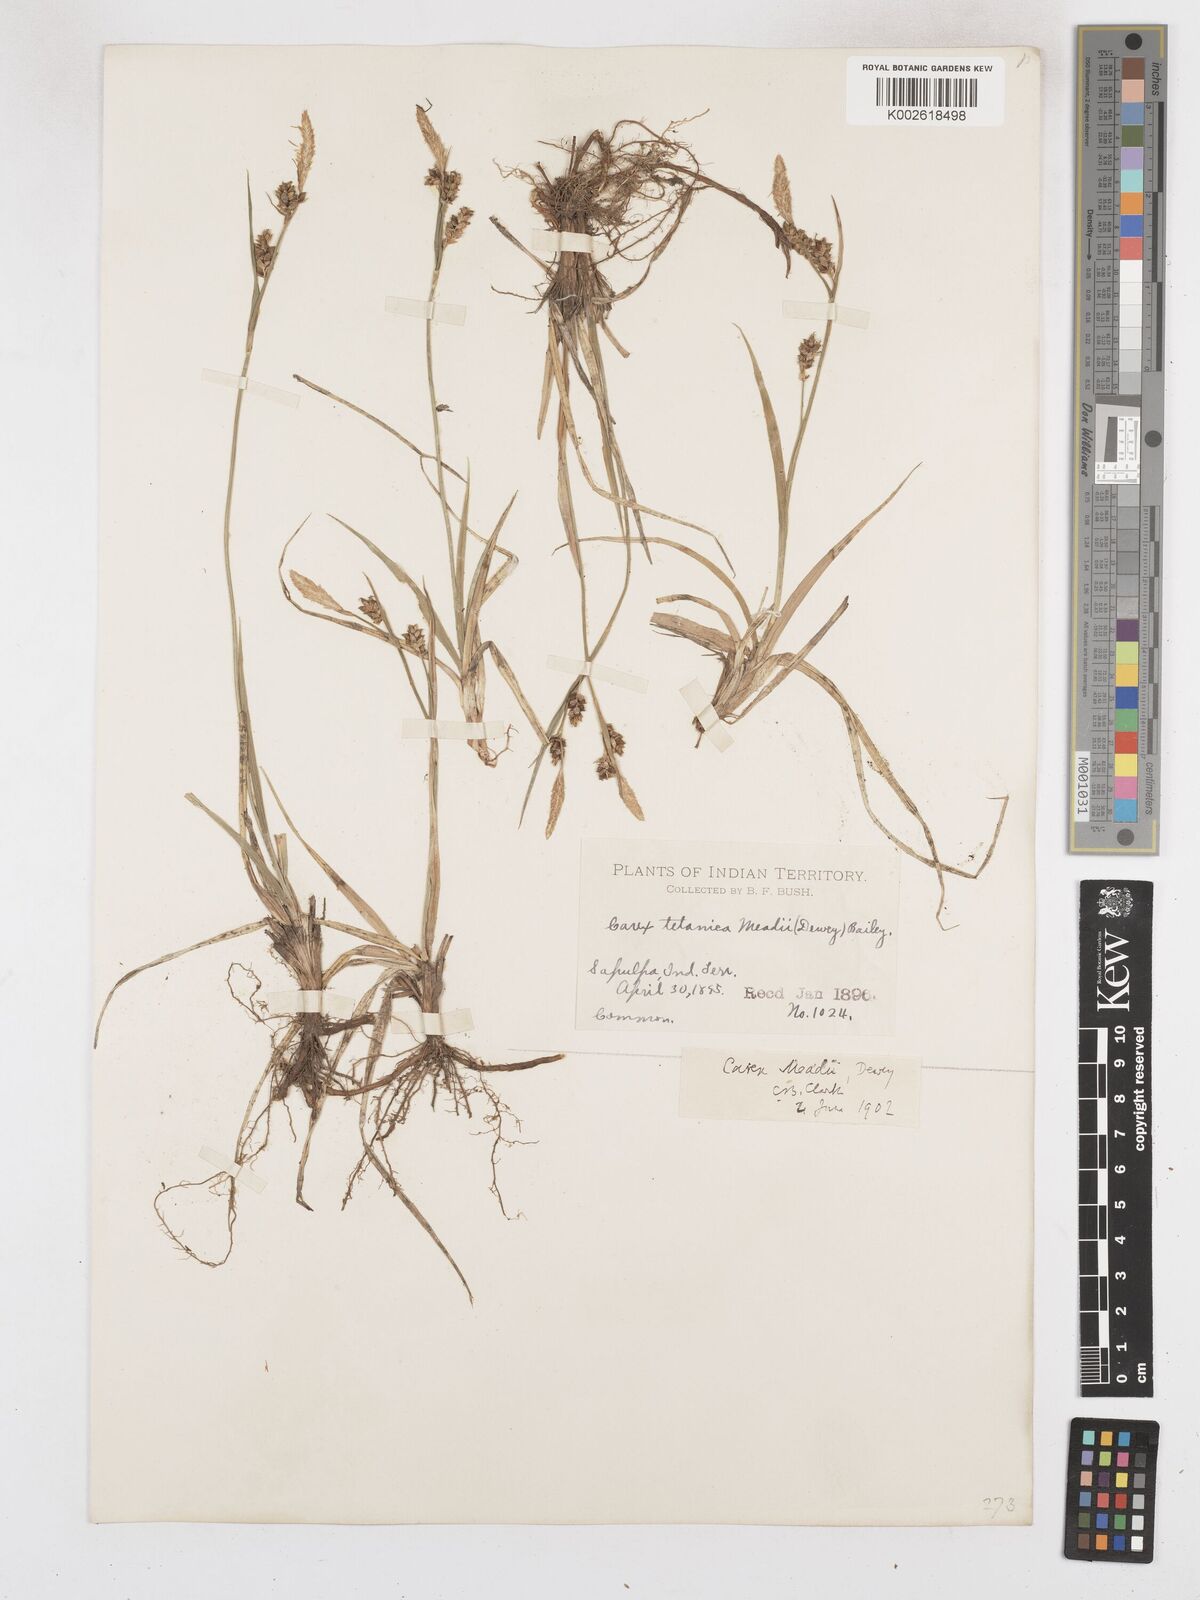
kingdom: Plantae
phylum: Tracheophyta
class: Liliopsida
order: Poales
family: Cyperaceae
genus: Carex
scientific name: Carex meadii
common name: Mead's sedge
